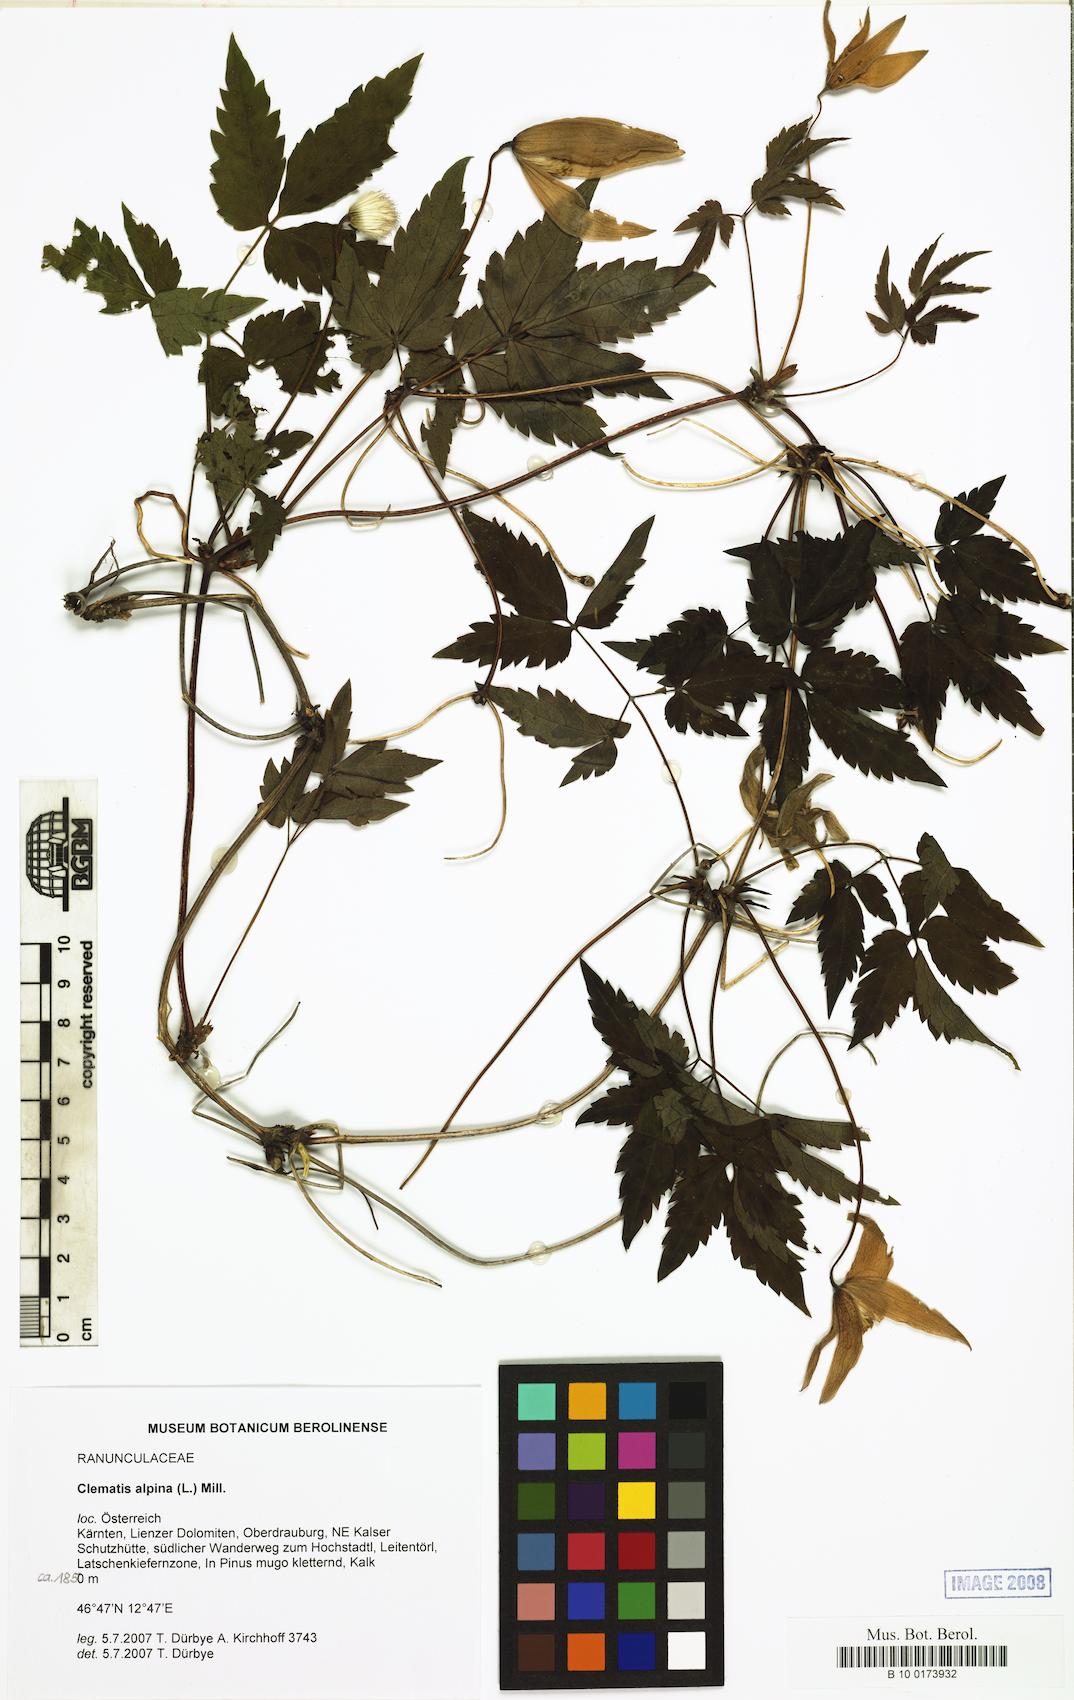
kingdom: Plantae
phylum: Tracheophyta
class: Magnoliopsida
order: Ranunculales
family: Ranunculaceae
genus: Clematis
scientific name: Clematis alpina
